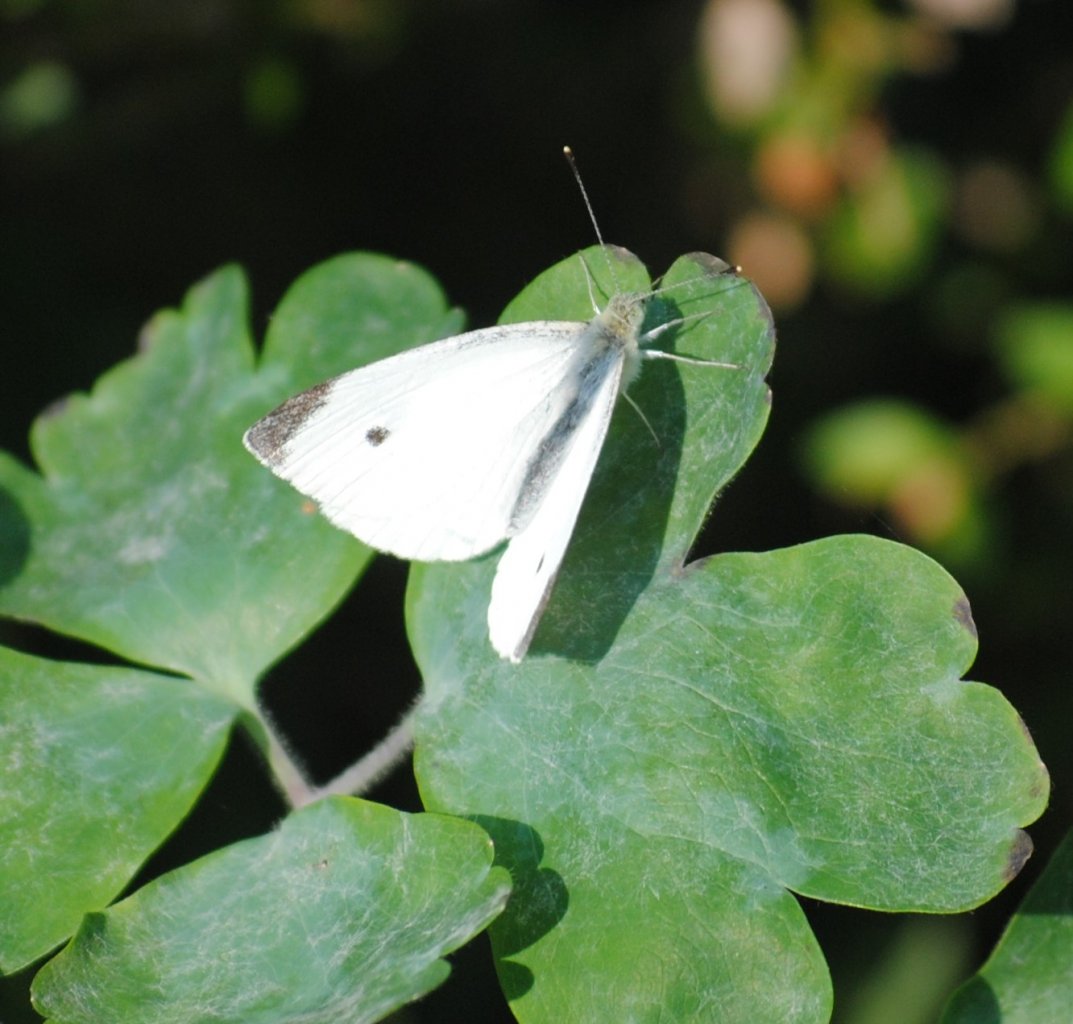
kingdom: Animalia
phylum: Arthropoda
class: Insecta
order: Lepidoptera
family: Pieridae
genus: Pieris
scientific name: Pieris rapae
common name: Cabbage White
